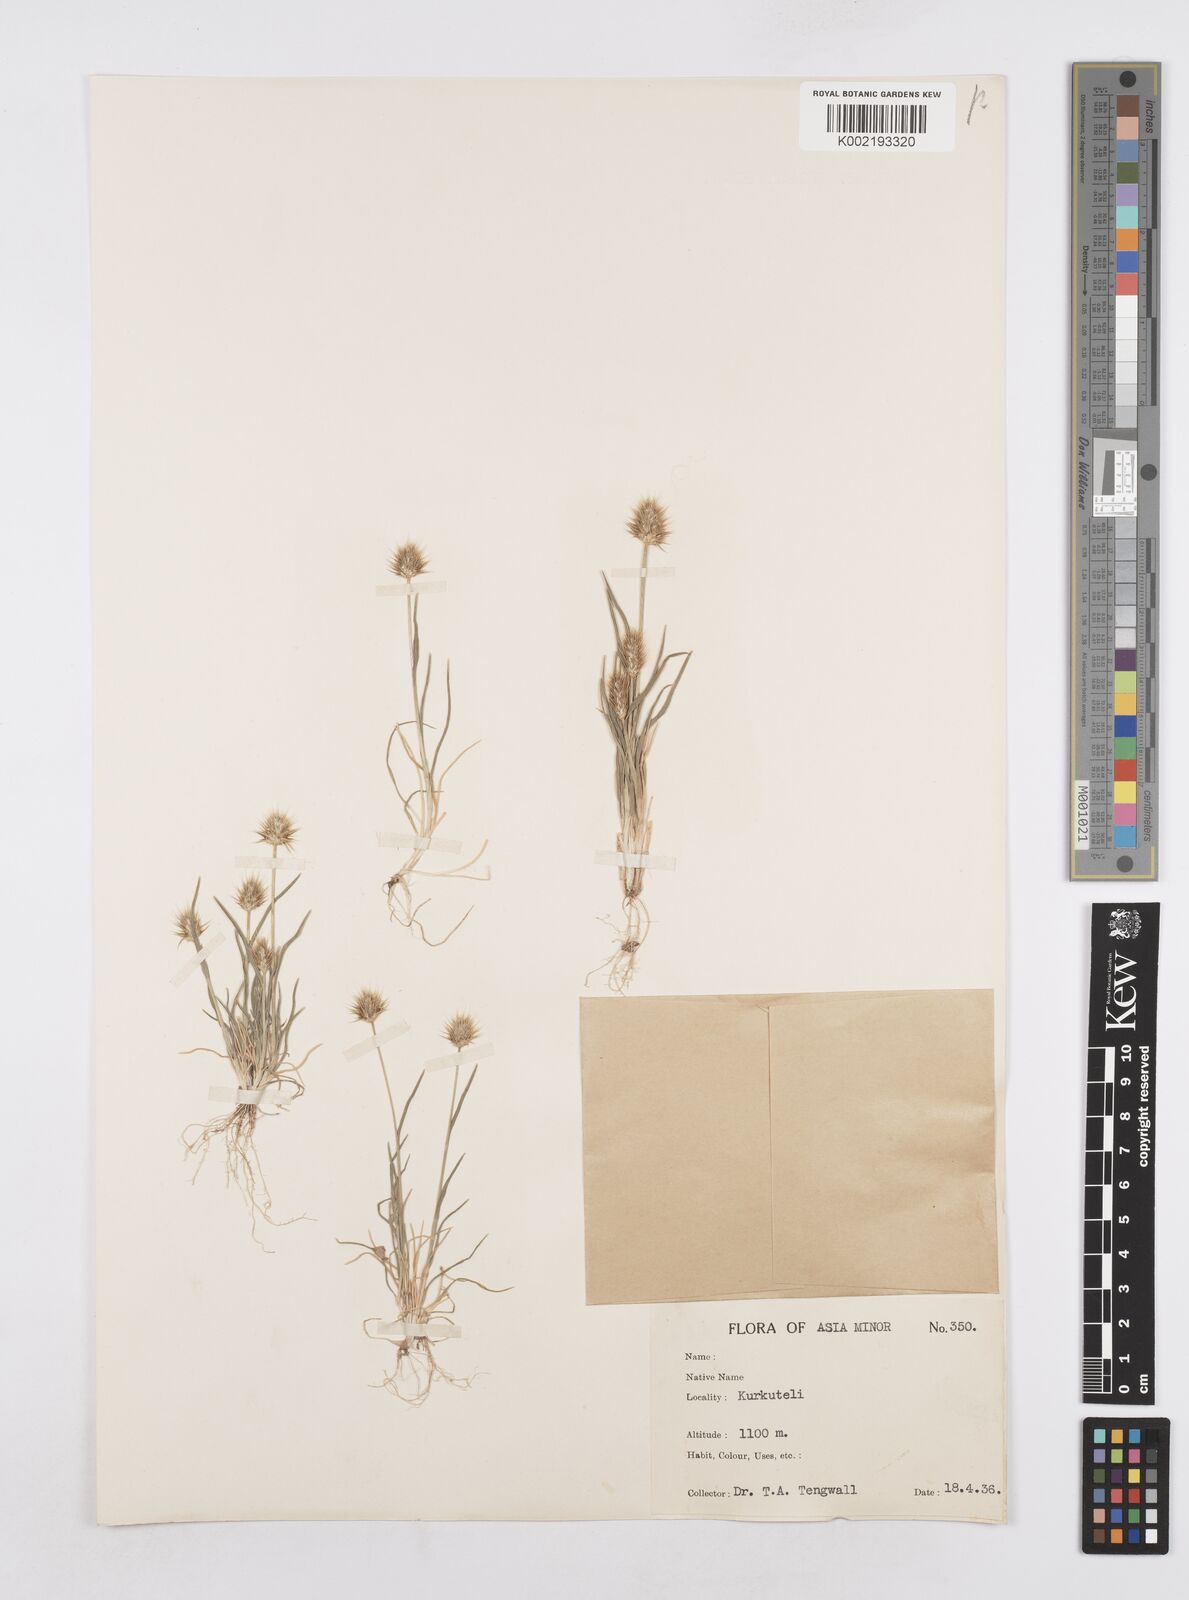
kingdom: Plantae
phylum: Tracheophyta
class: Liliopsida
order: Poales
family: Poaceae
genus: Echinaria
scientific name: Echinaria capitata
